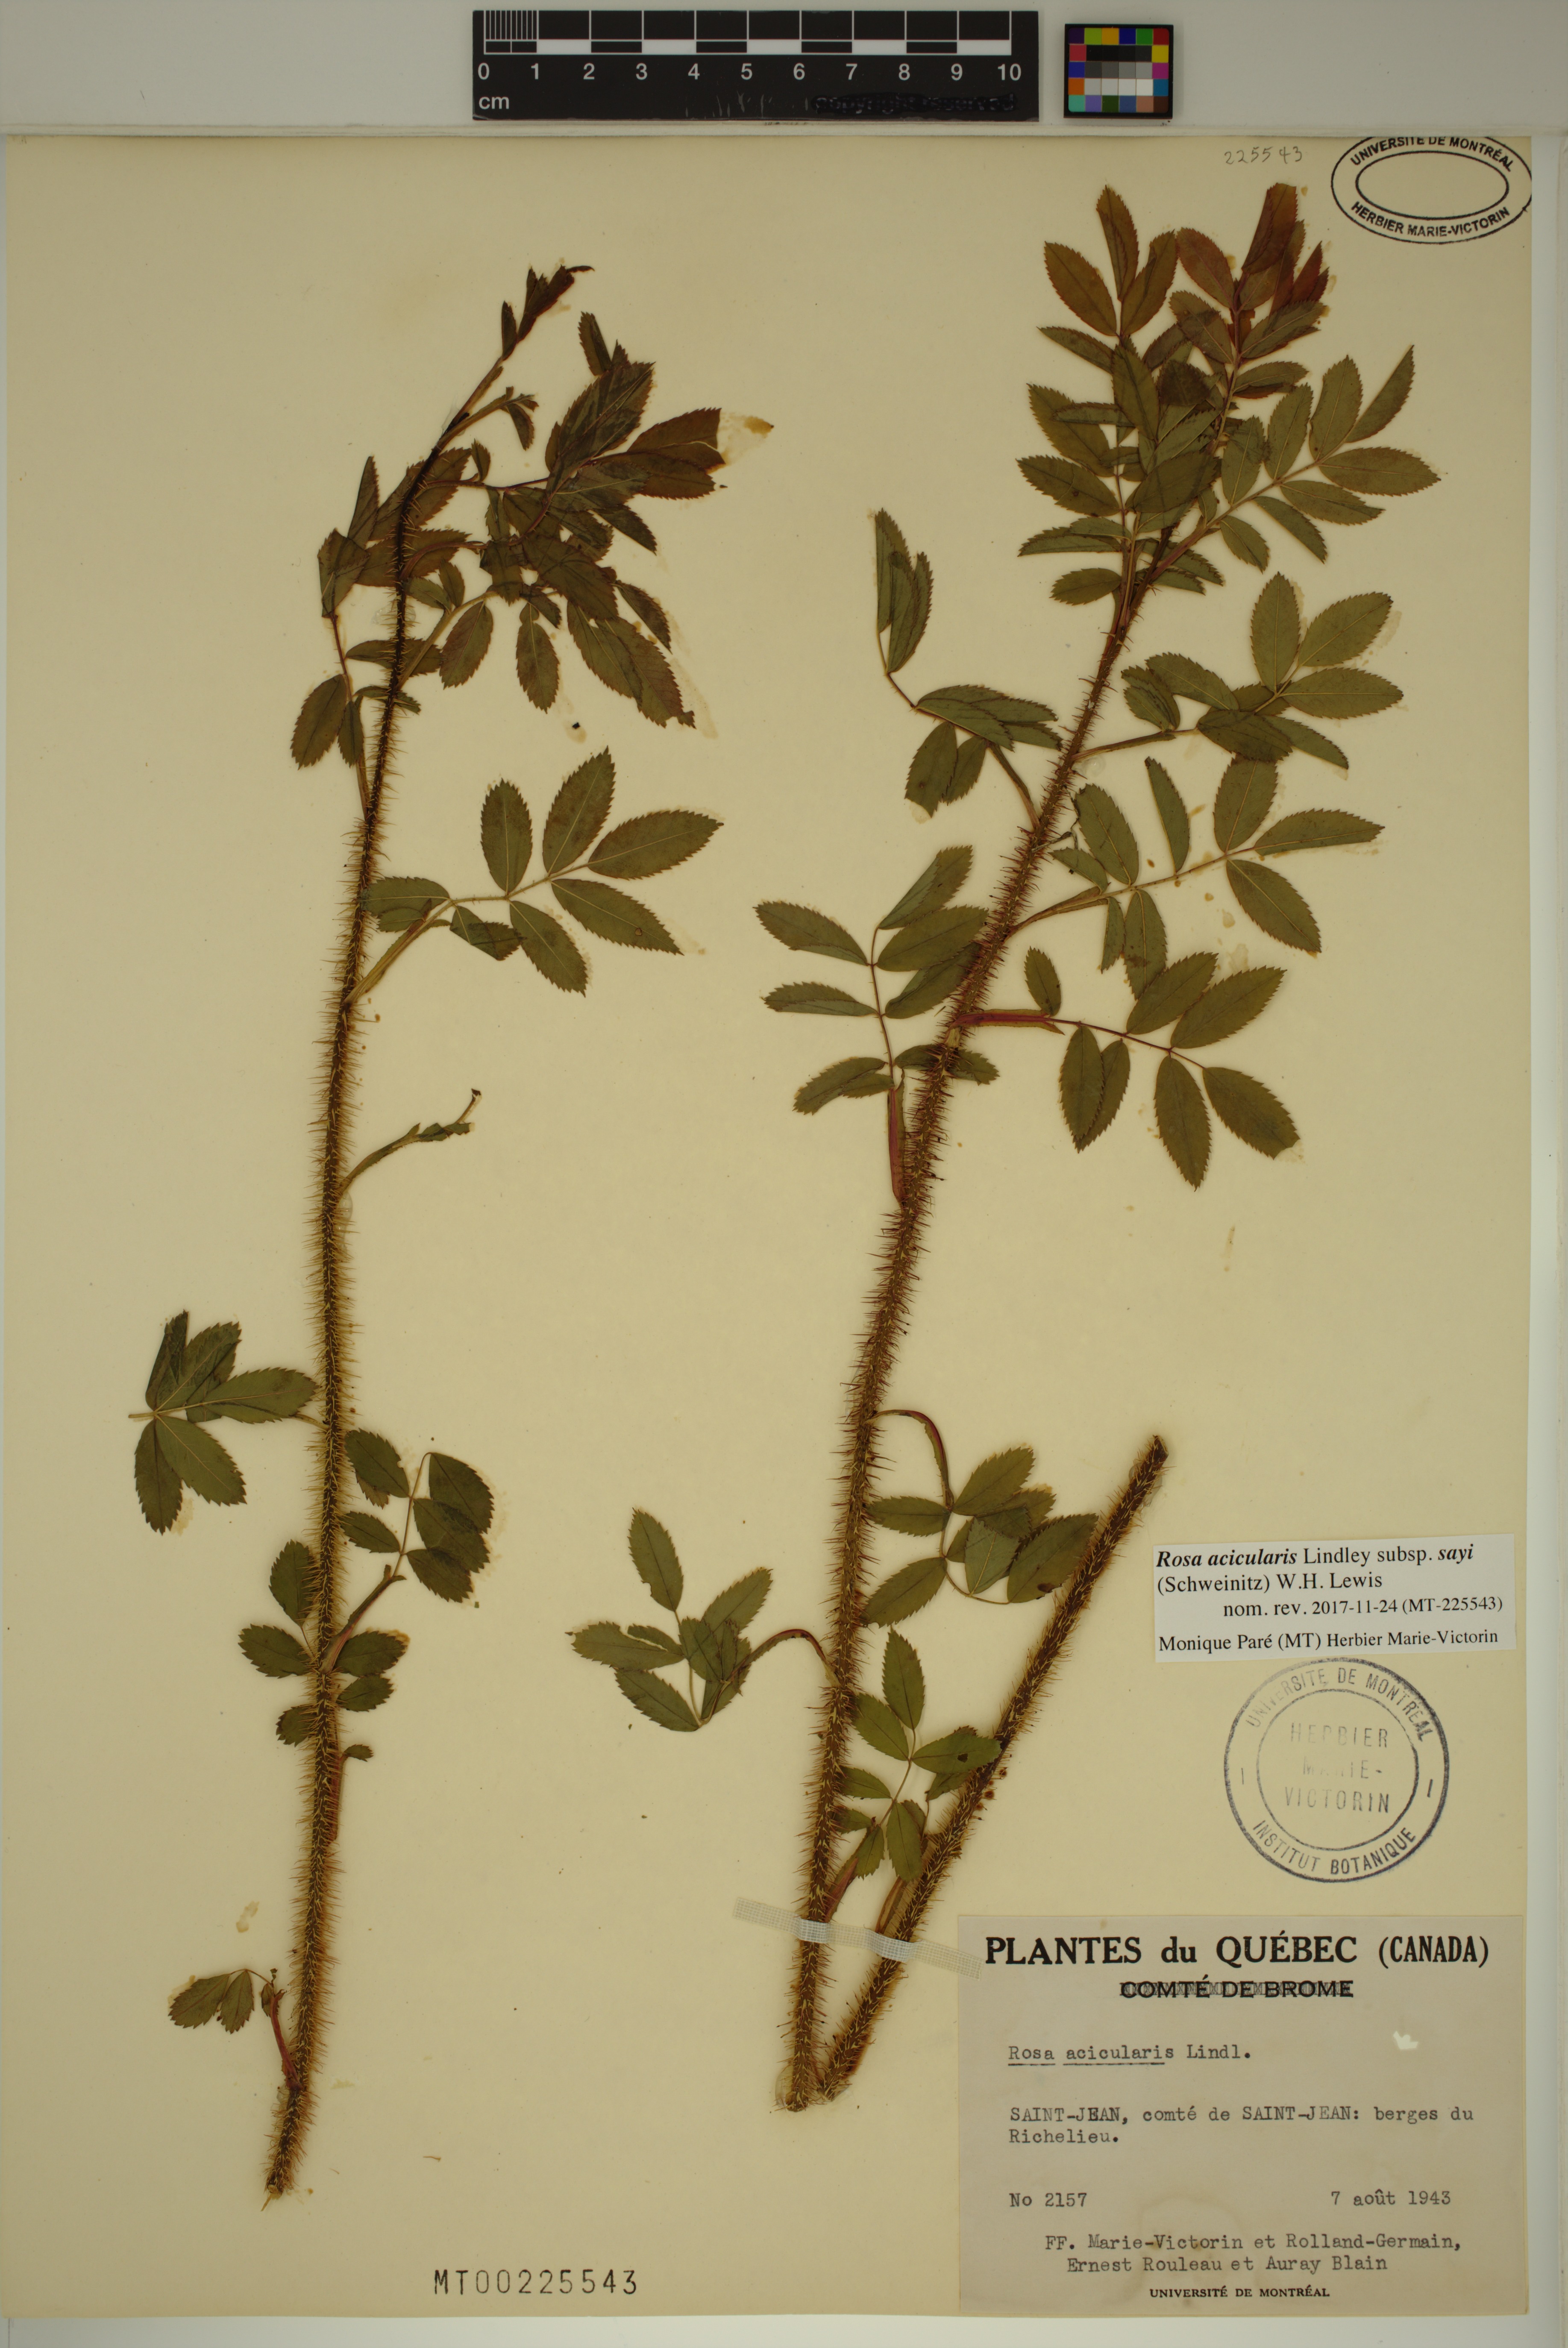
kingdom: Plantae
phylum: Tracheophyta
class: Magnoliopsida
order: Rosales
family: Rosaceae
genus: Rosa
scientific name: Rosa acicularis
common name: Prickly rose
